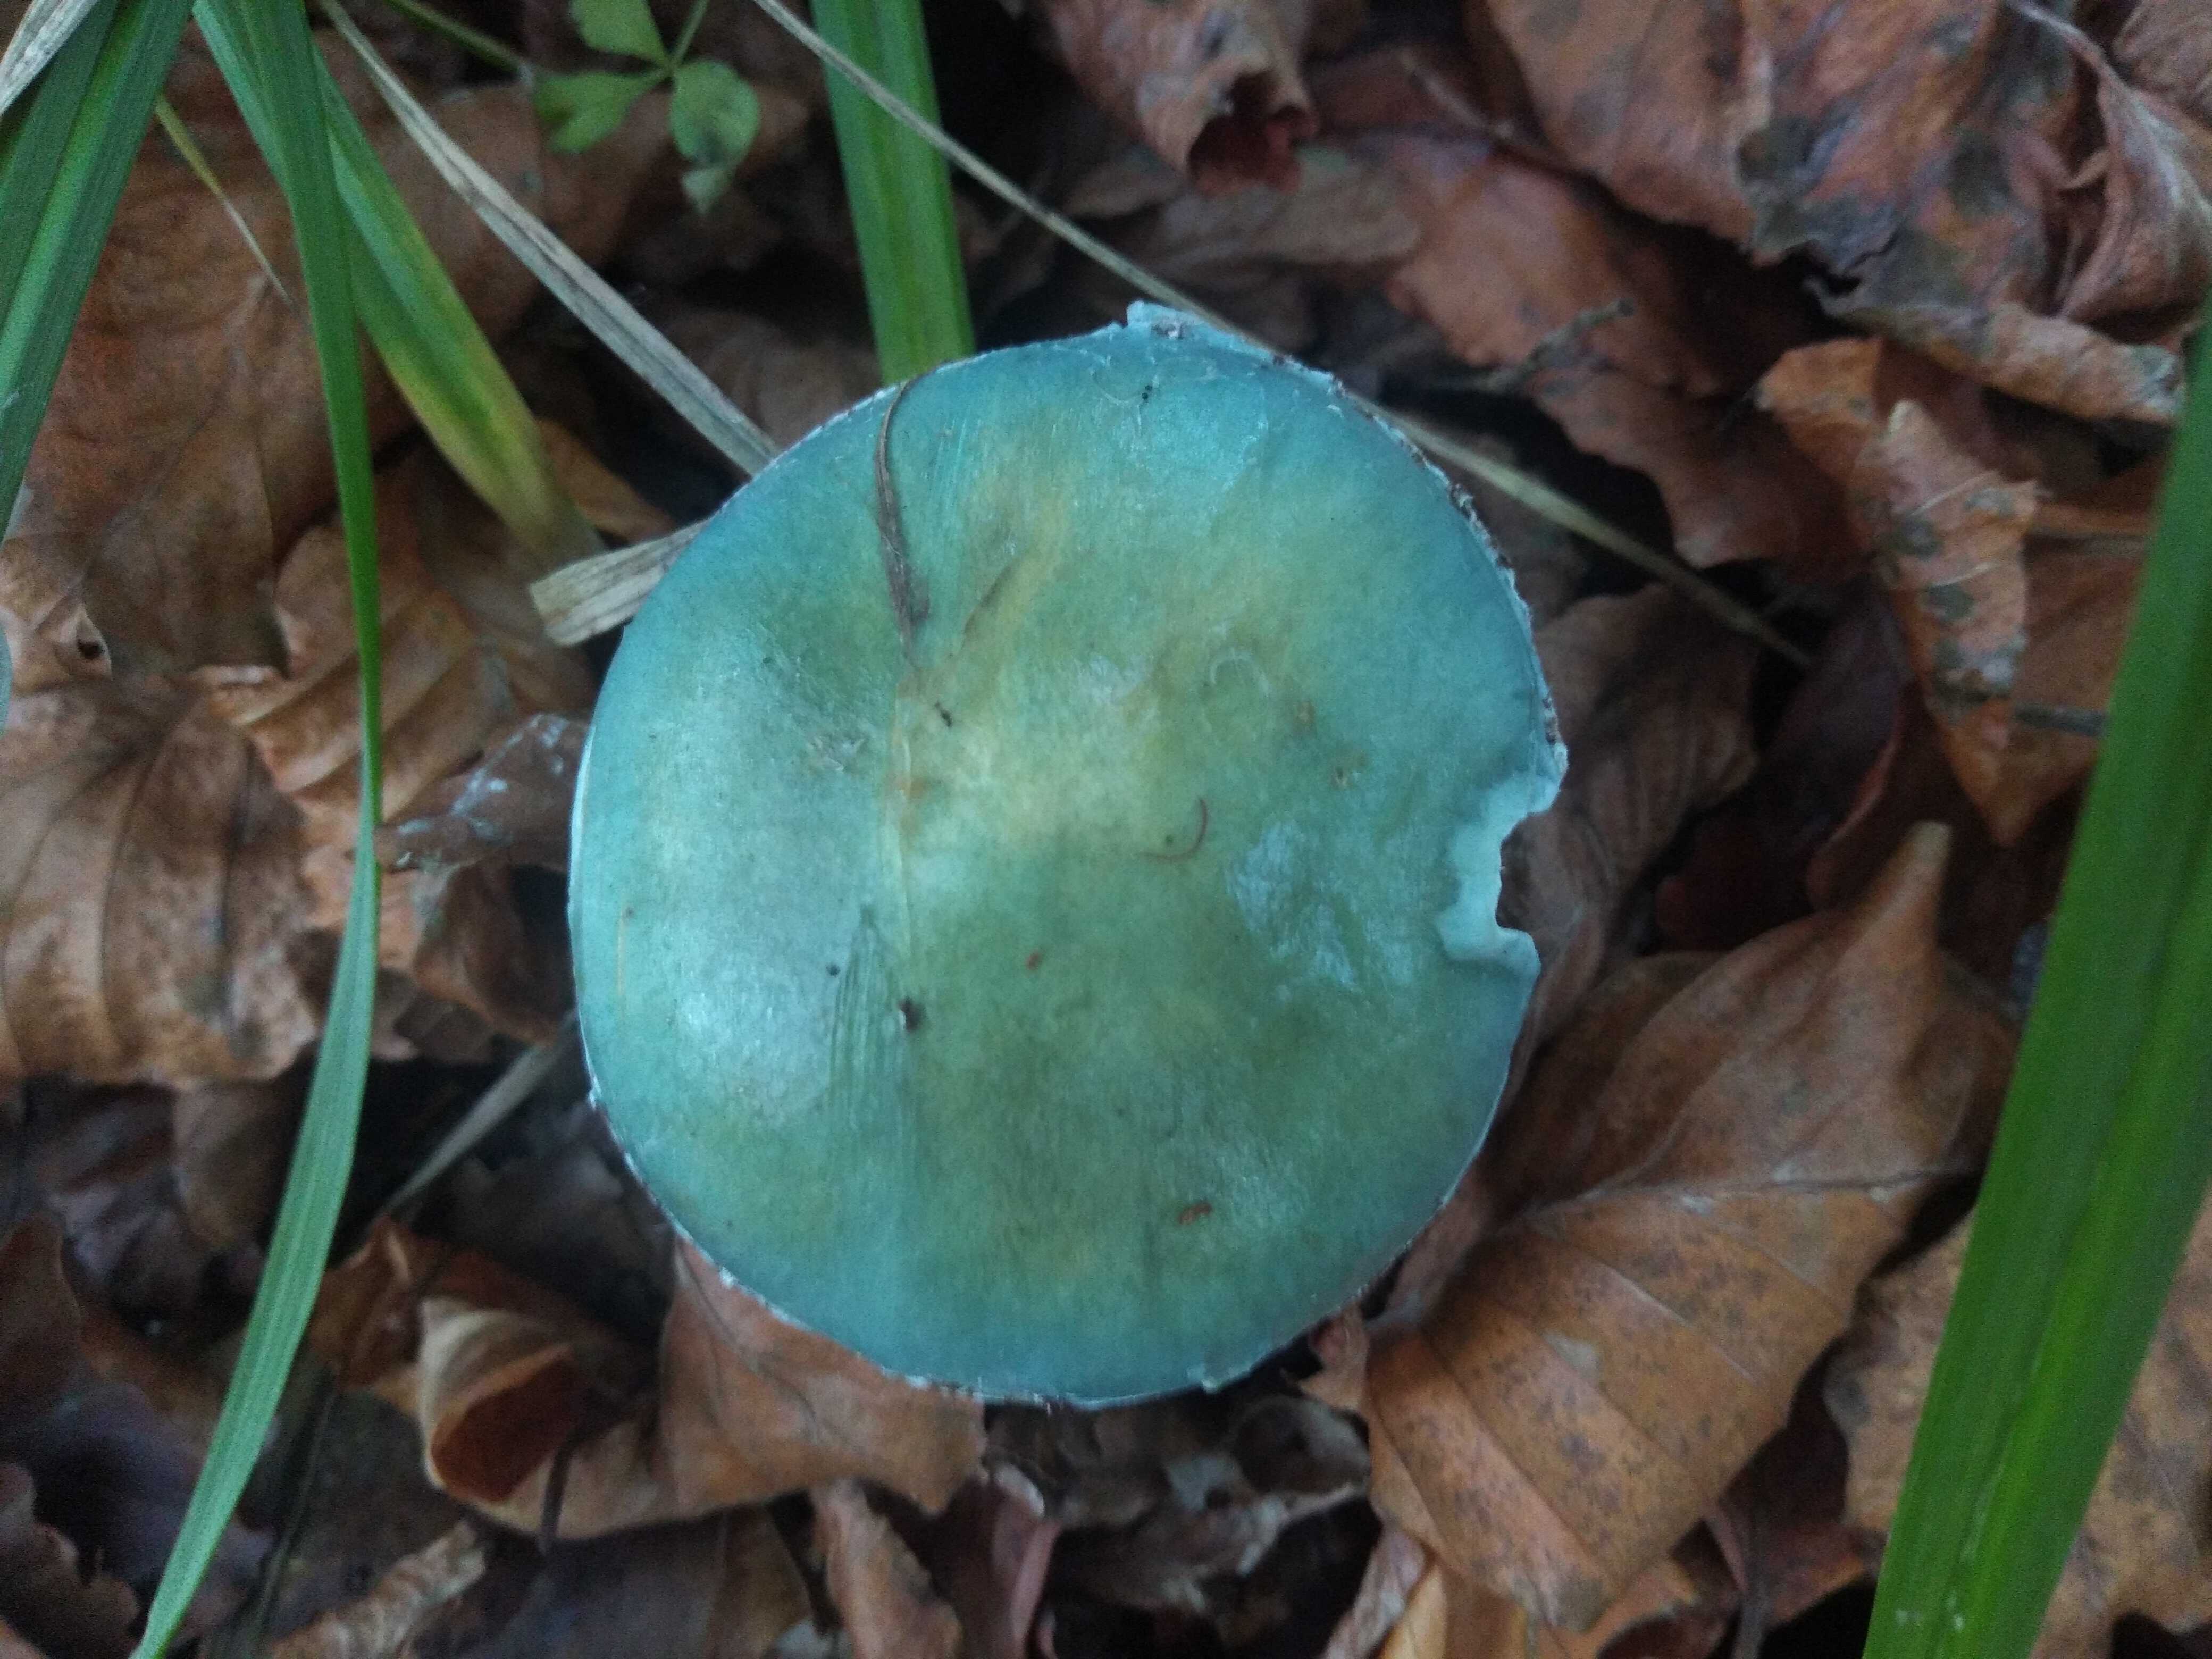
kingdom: Fungi
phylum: Basidiomycota
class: Agaricomycetes
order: Agaricales
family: Strophariaceae
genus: Stropharia
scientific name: Stropharia cyanea
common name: blågrøn bredblad
